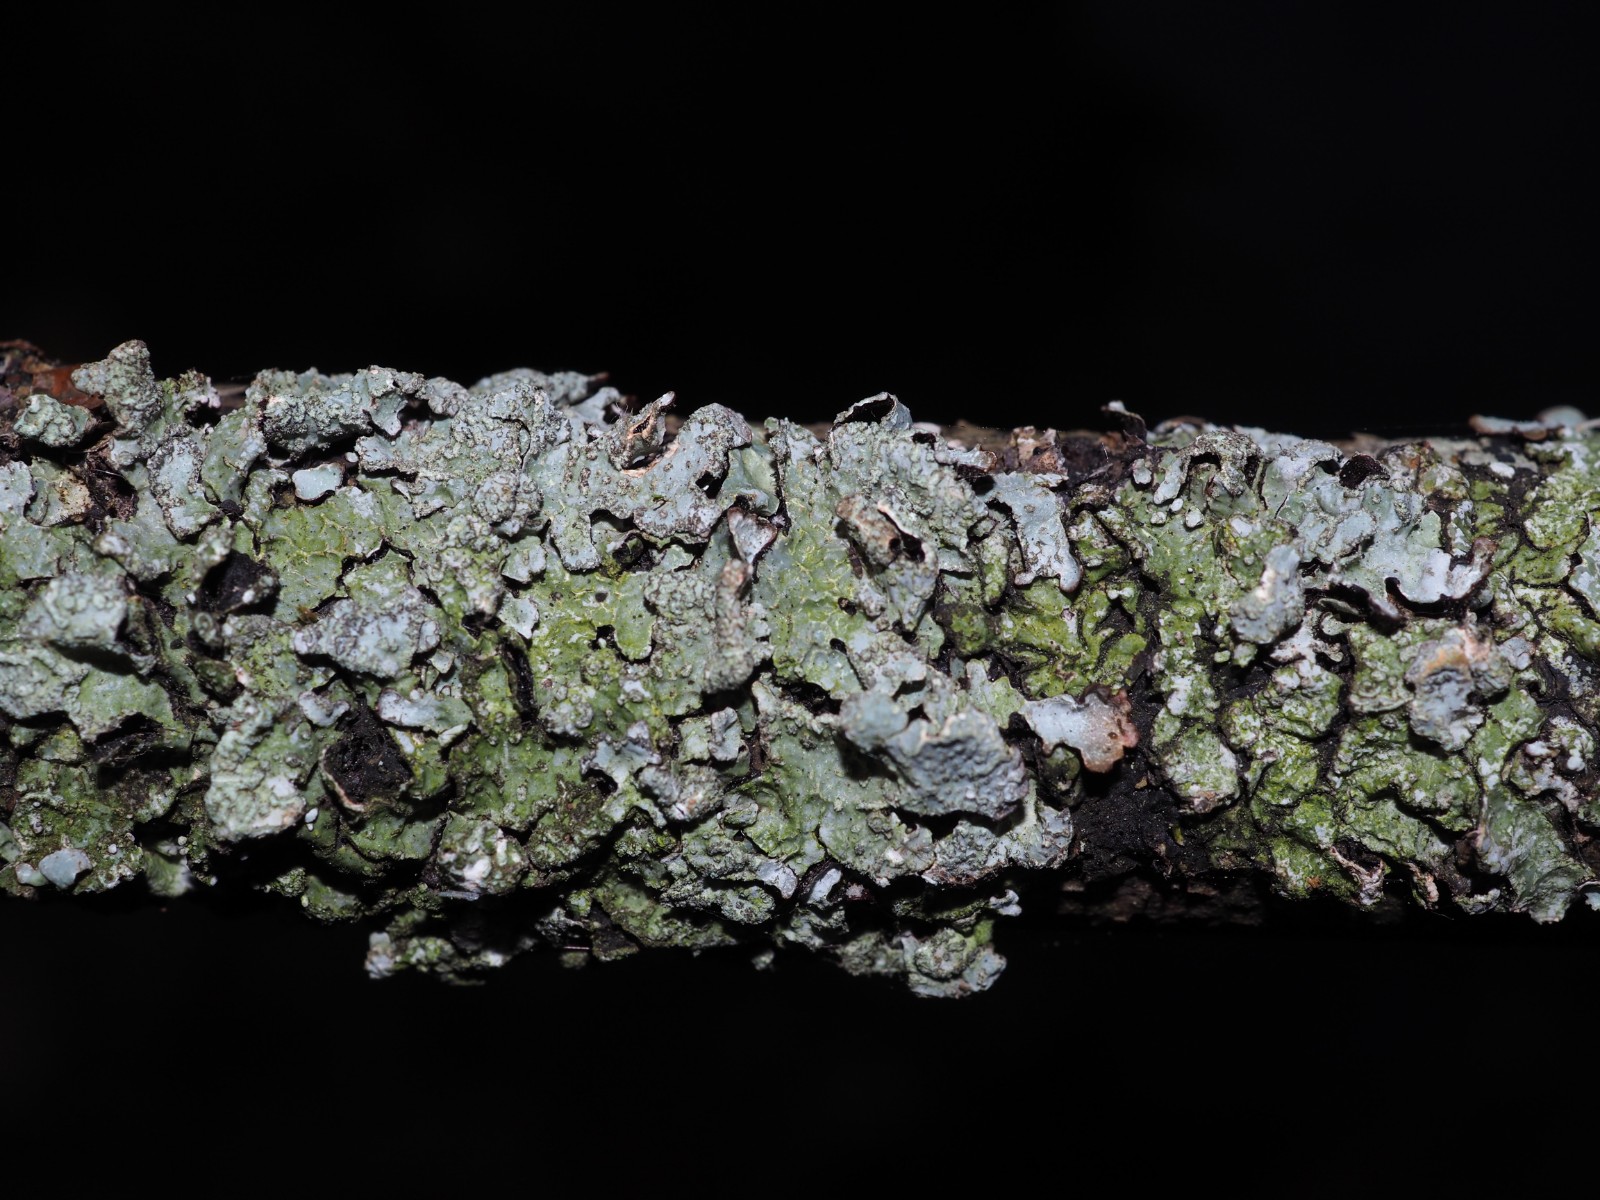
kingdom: Fungi
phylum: Ascomycota
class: Lecanoromycetes
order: Lecanorales
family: Parmeliaceae
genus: Parmelia
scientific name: Parmelia sulcata
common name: rynket skållav
